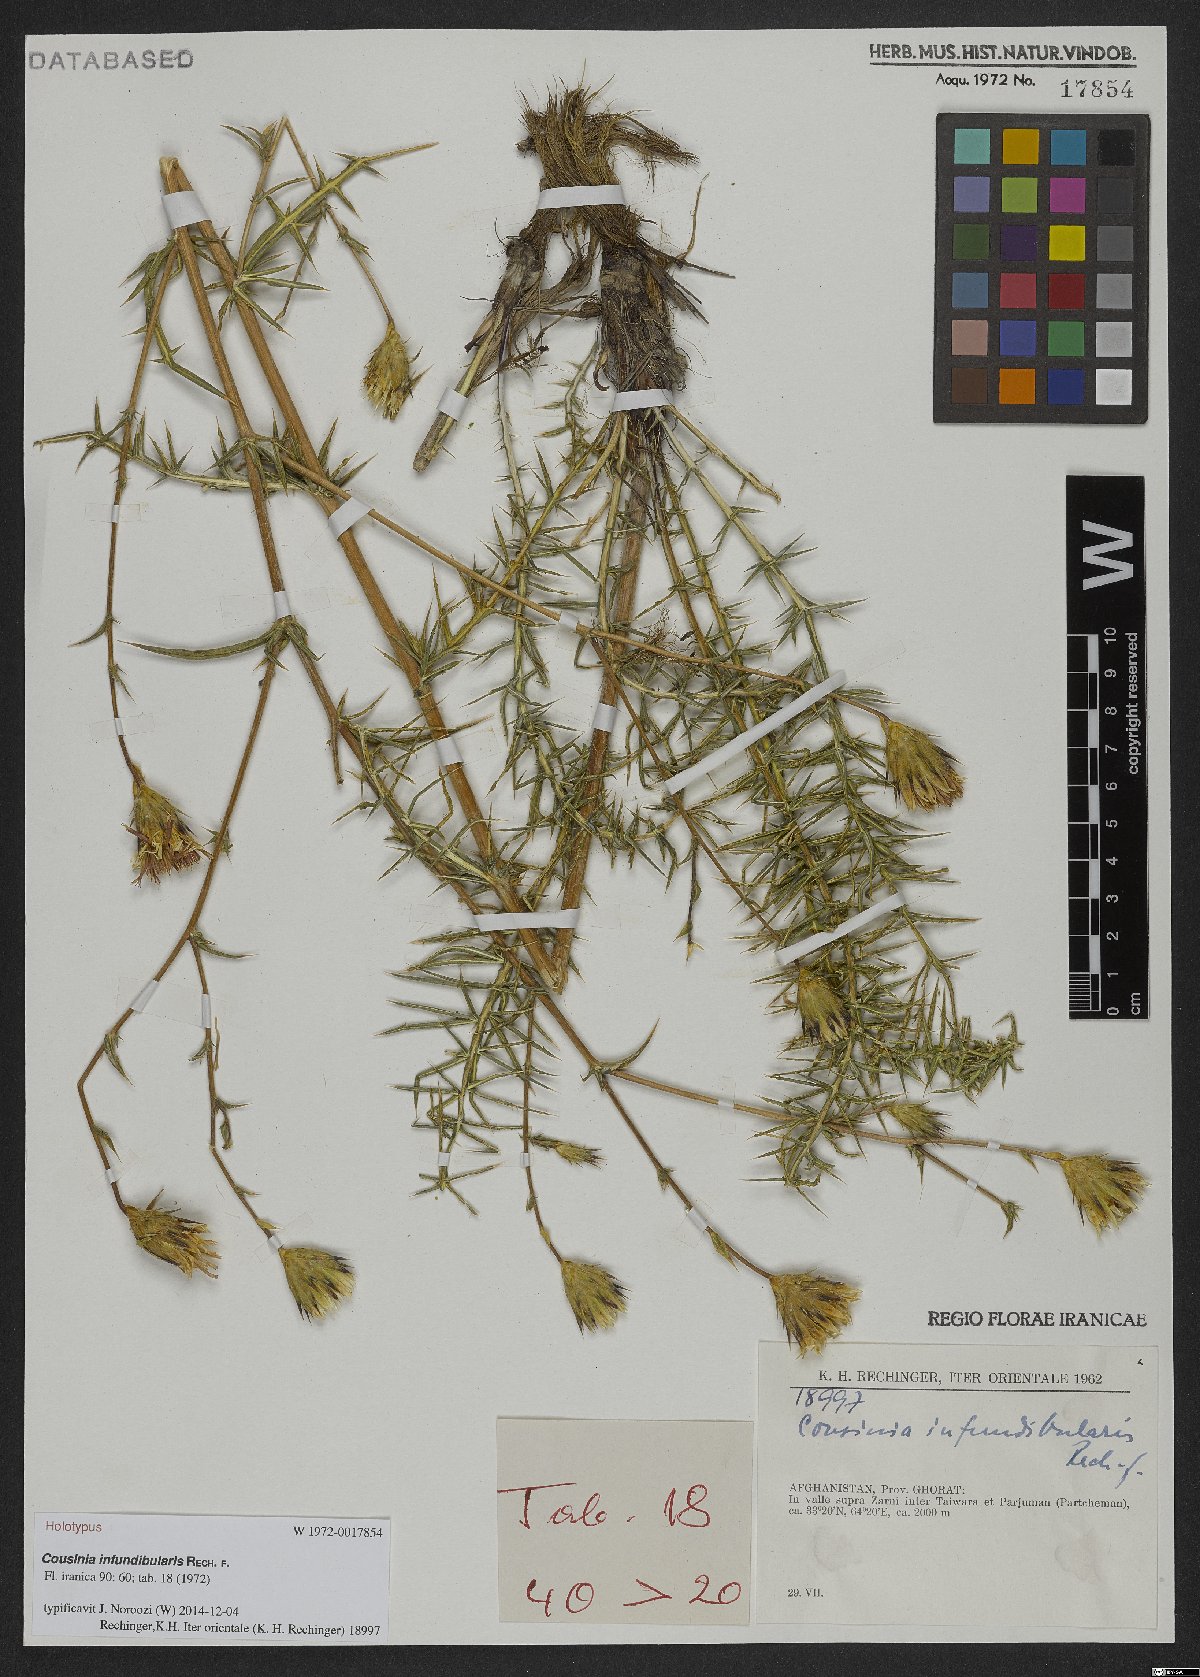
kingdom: Plantae
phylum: Tracheophyta
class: Magnoliopsida
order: Asterales
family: Asteraceae
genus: Cousinia
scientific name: Cousinia infundibularis
